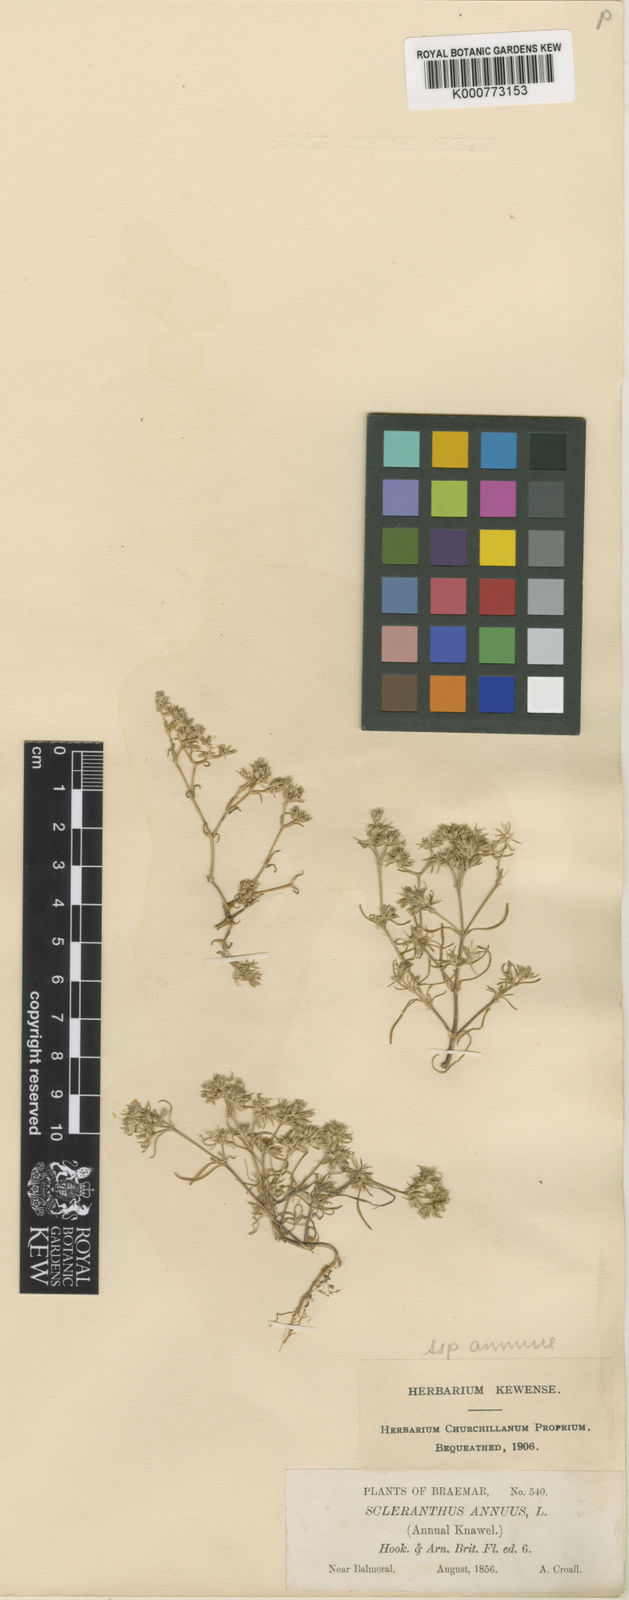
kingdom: Plantae
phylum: Tracheophyta
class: Magnoliopsida
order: Caryophyllales
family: Caryophyllaceae
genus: Scleranthus
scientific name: Scleranthus annuus
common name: Annual knawel
